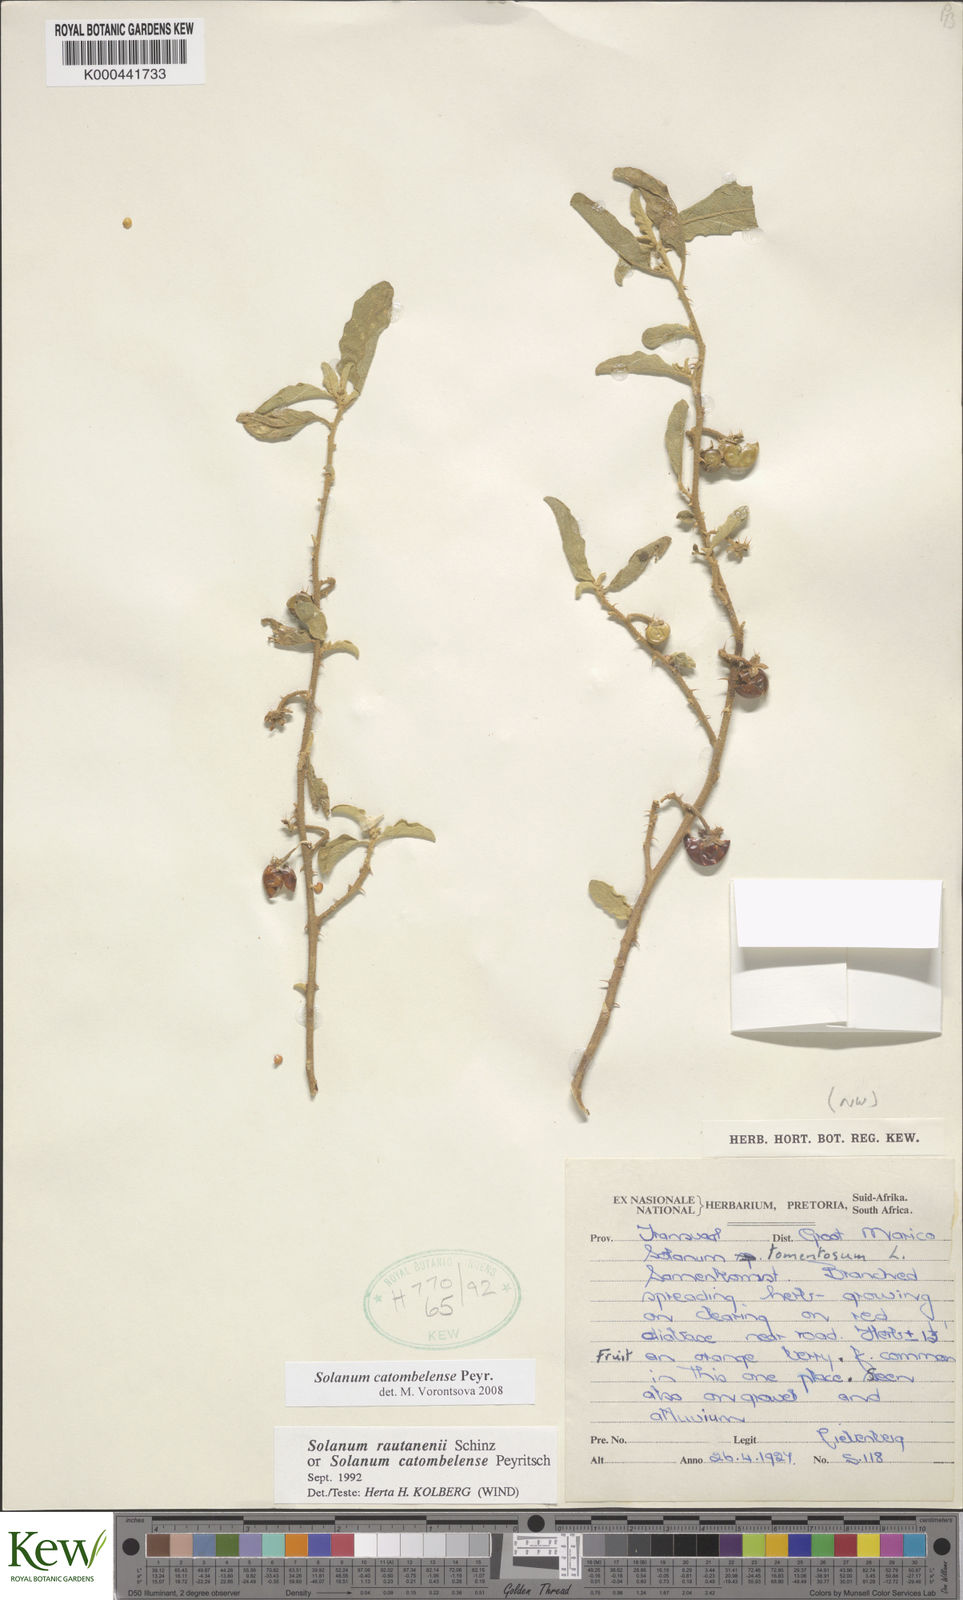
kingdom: Plantae
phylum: Tracheophyta
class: Magnoliopsida
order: Solanales
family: Solanaceae
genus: Solanum
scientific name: Solanum catombelense
